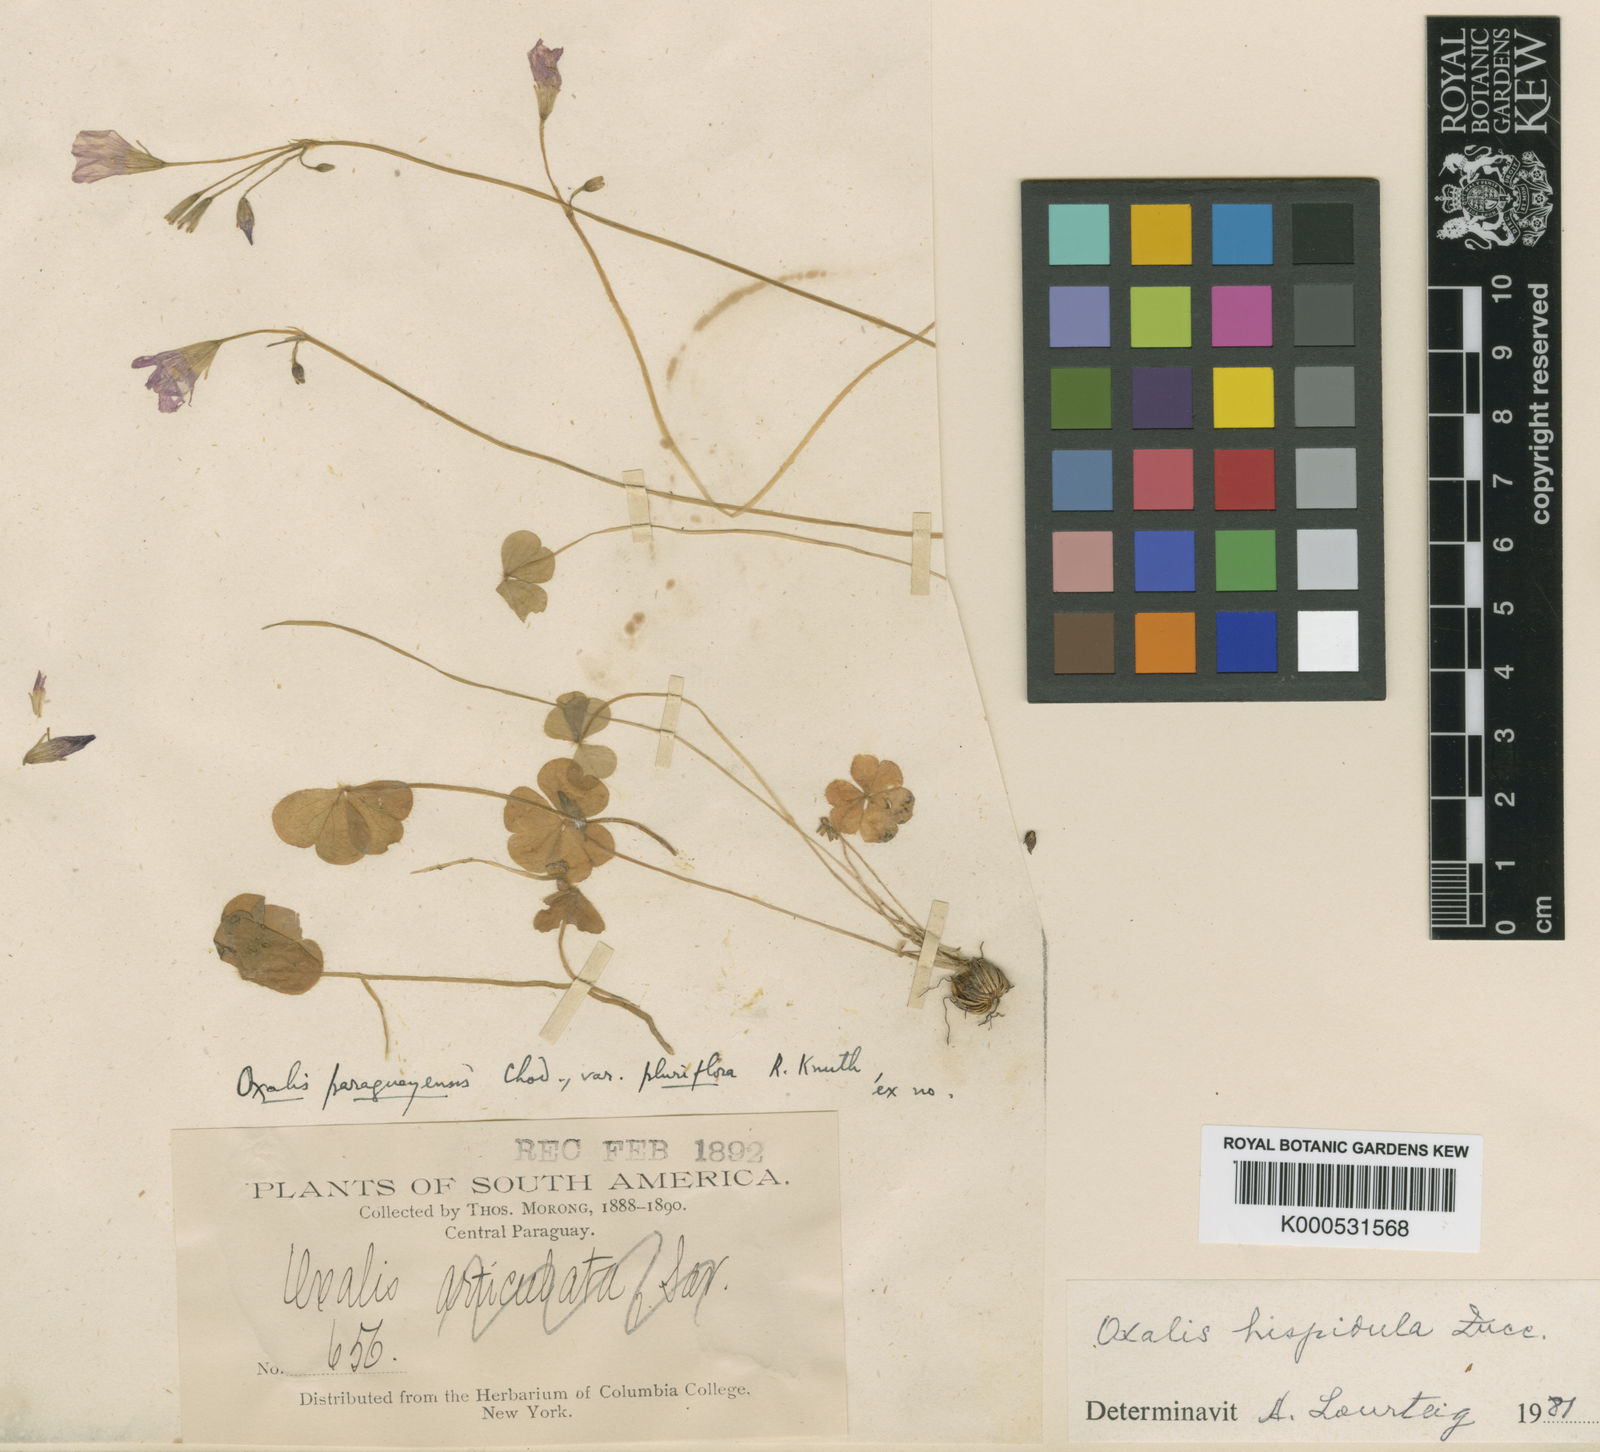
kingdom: Plantae
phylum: Tracheophyta
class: Magnoliopsida
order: Oxalidales
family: Oxalidaceae
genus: Oxalis
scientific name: Oxalis hispidula
